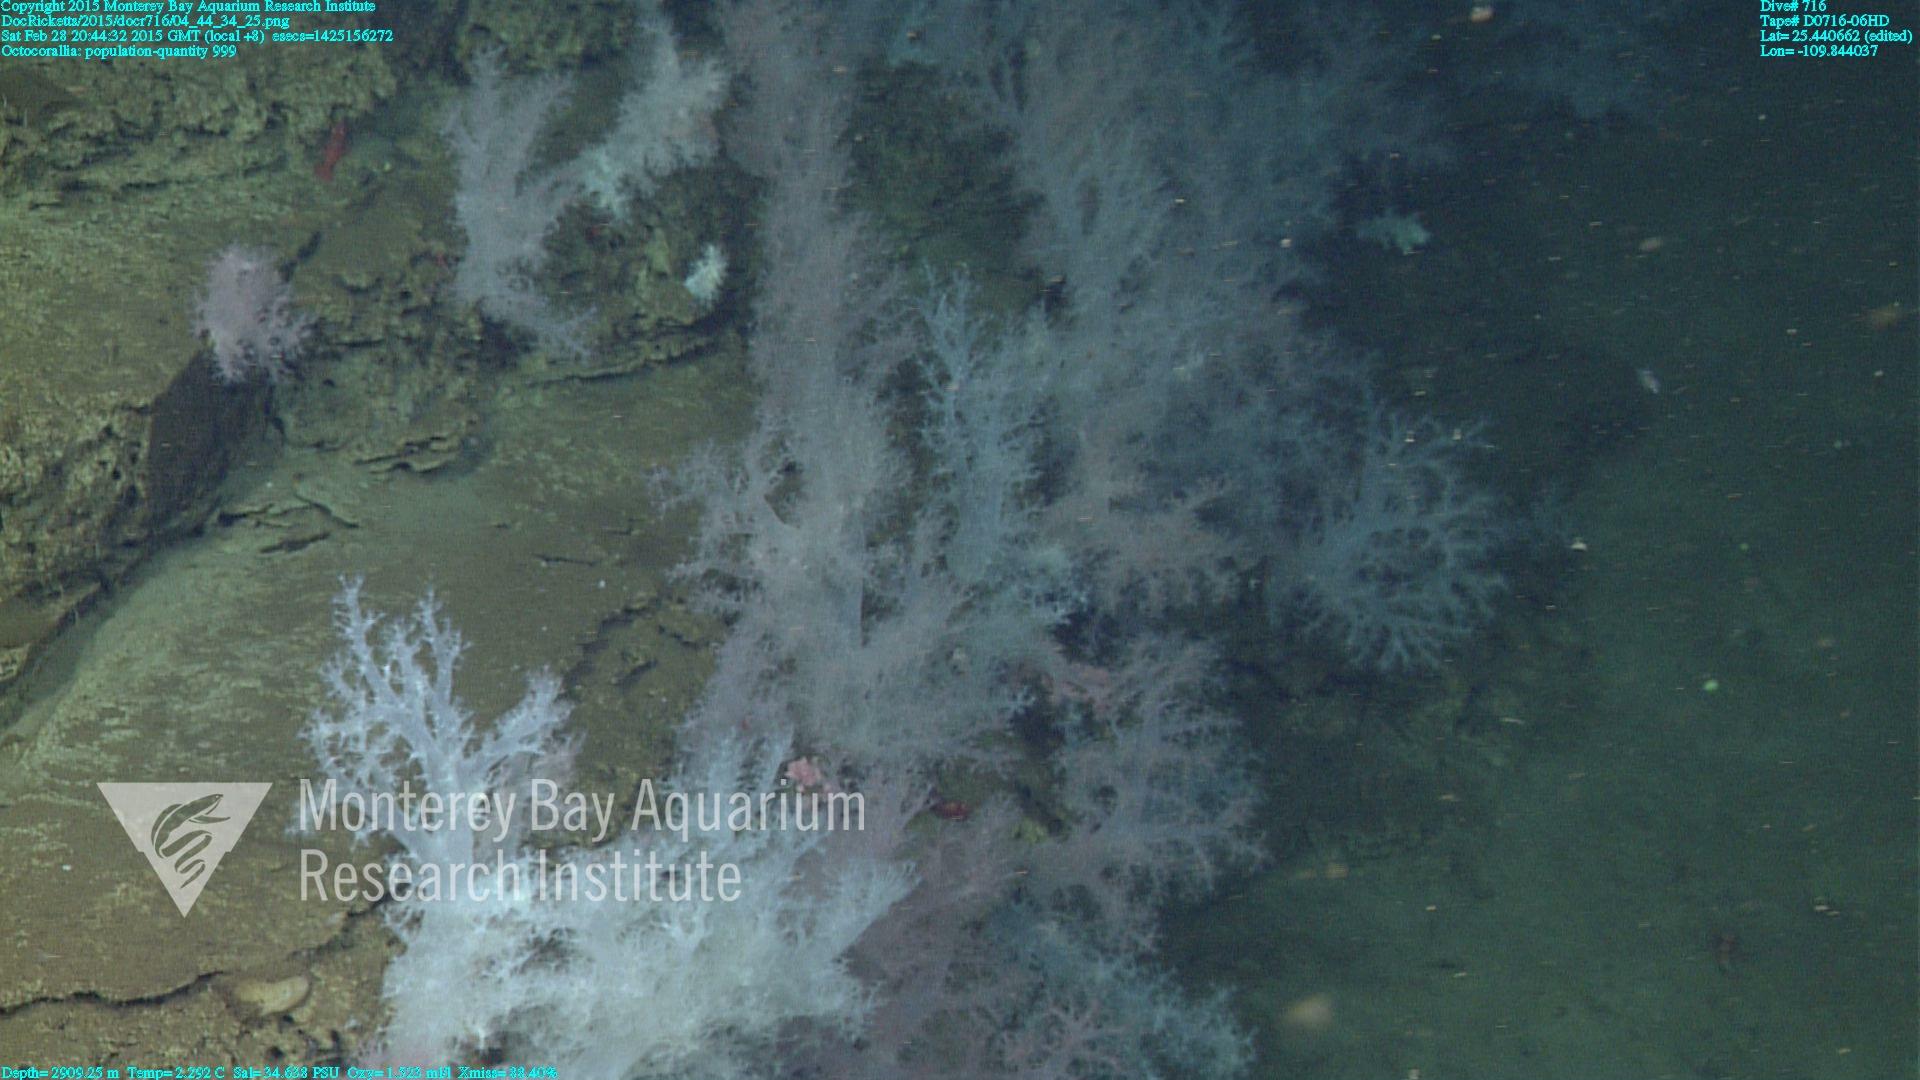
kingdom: Animalia
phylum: Cnidaria
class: Anthozoa
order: Malacalcyonacea
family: Alcyoniidae
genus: Gersemia
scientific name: Gersemia juliepackardae
